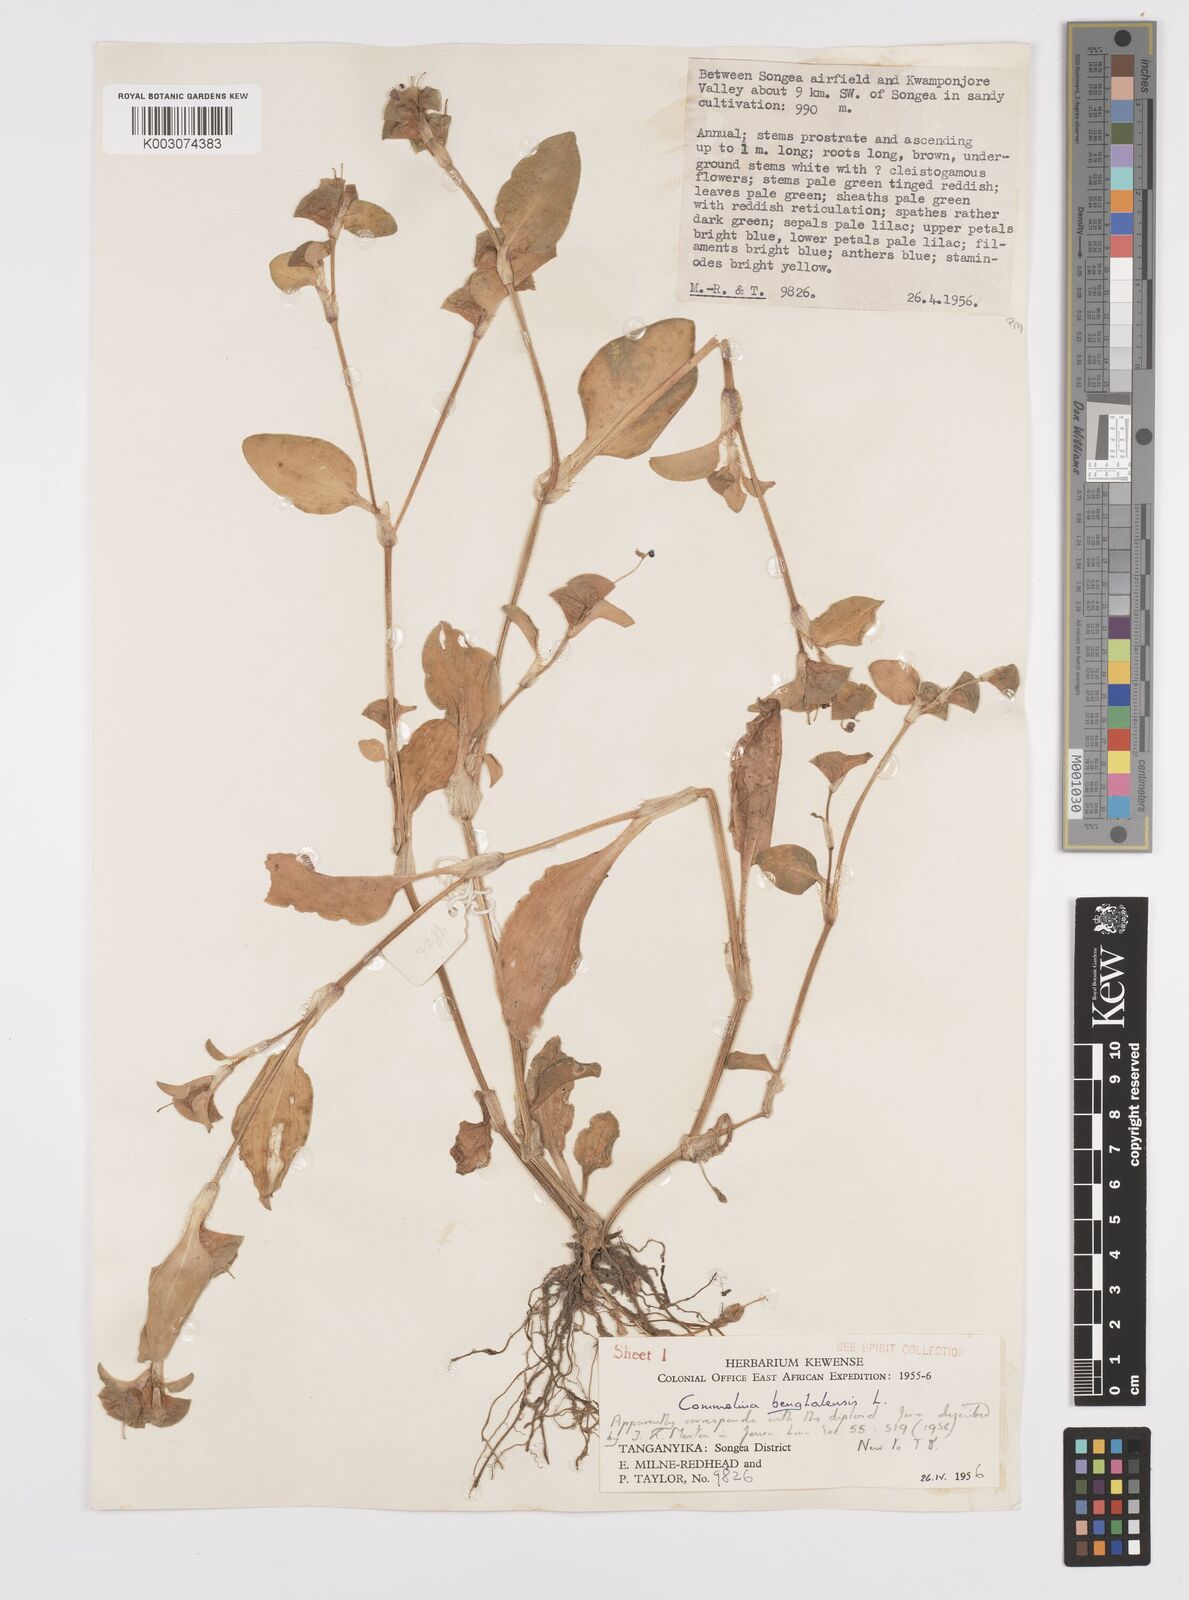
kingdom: Plantae
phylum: Tracheophyta
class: Liliopsida
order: Commelinales
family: Commelinaceae
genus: Commelina
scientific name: Commelina benghalensis
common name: Jio
